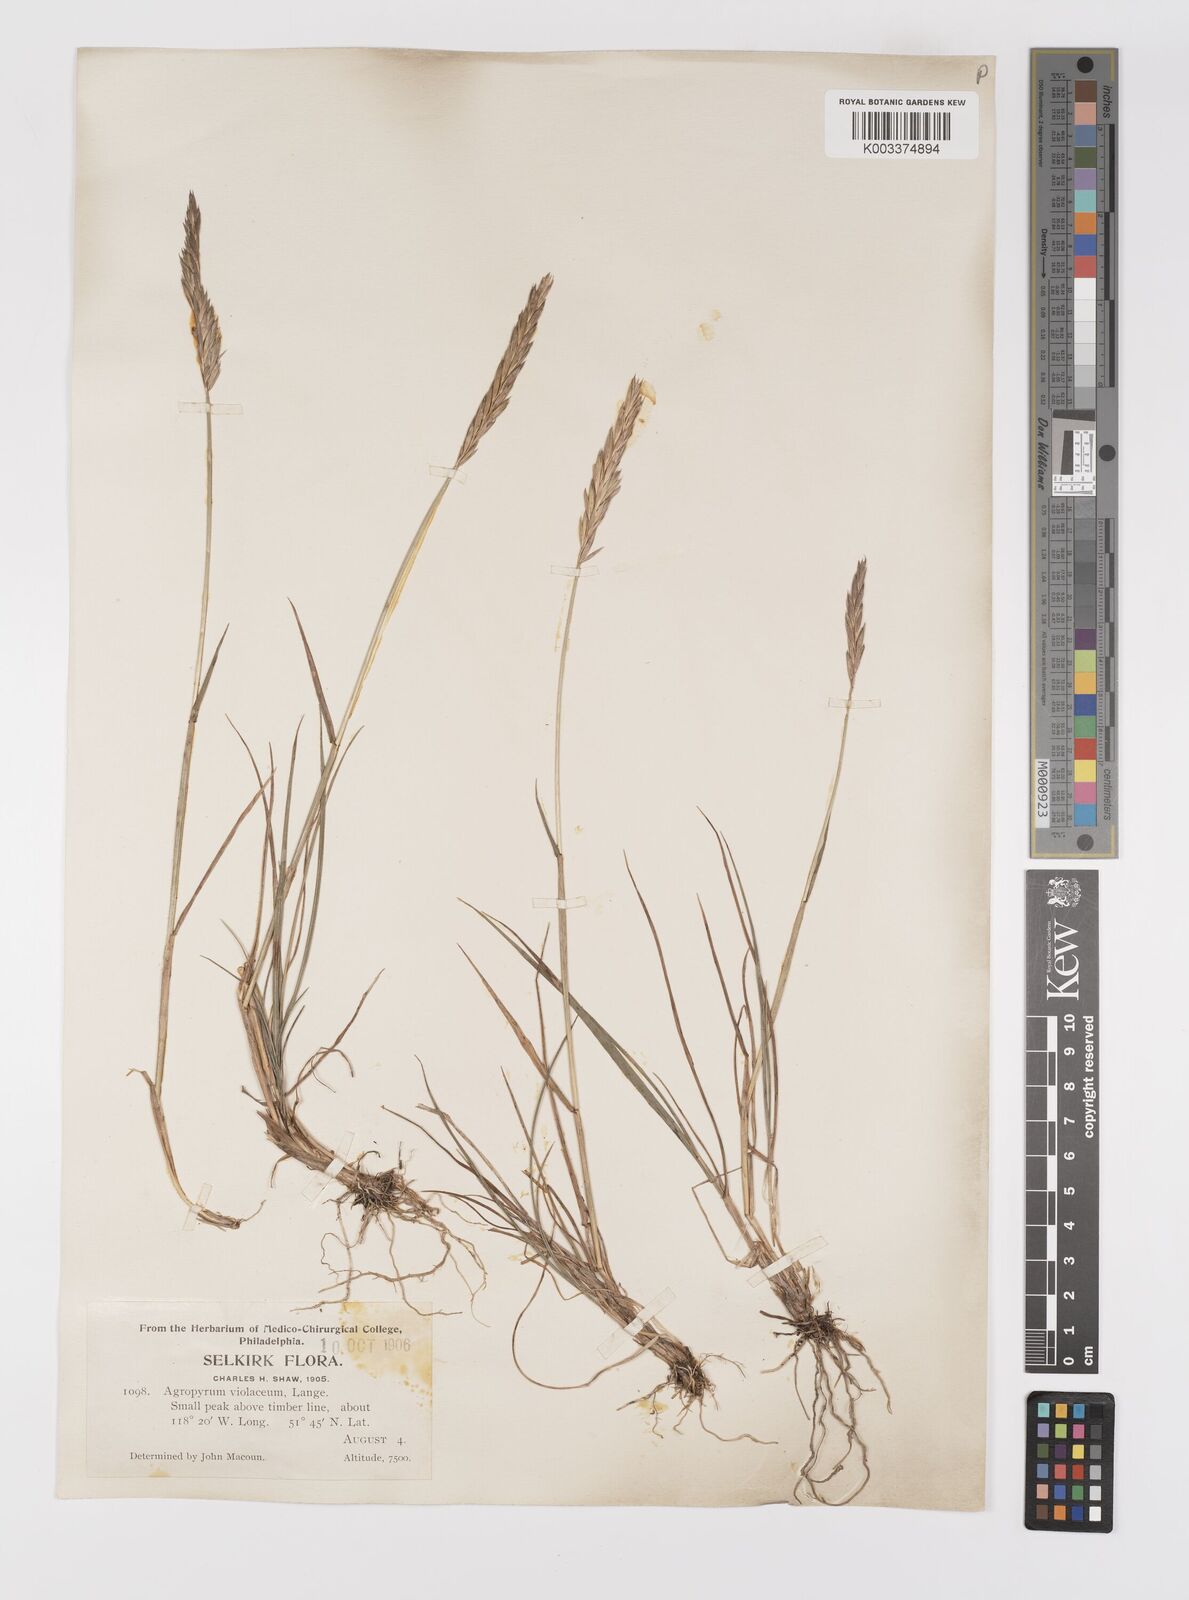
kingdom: Plantae
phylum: Tracheophyta
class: Liliopsida
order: Poales
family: Poaceae
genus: Elymus
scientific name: Elymus violaceus
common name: Arctic wheatgrass
